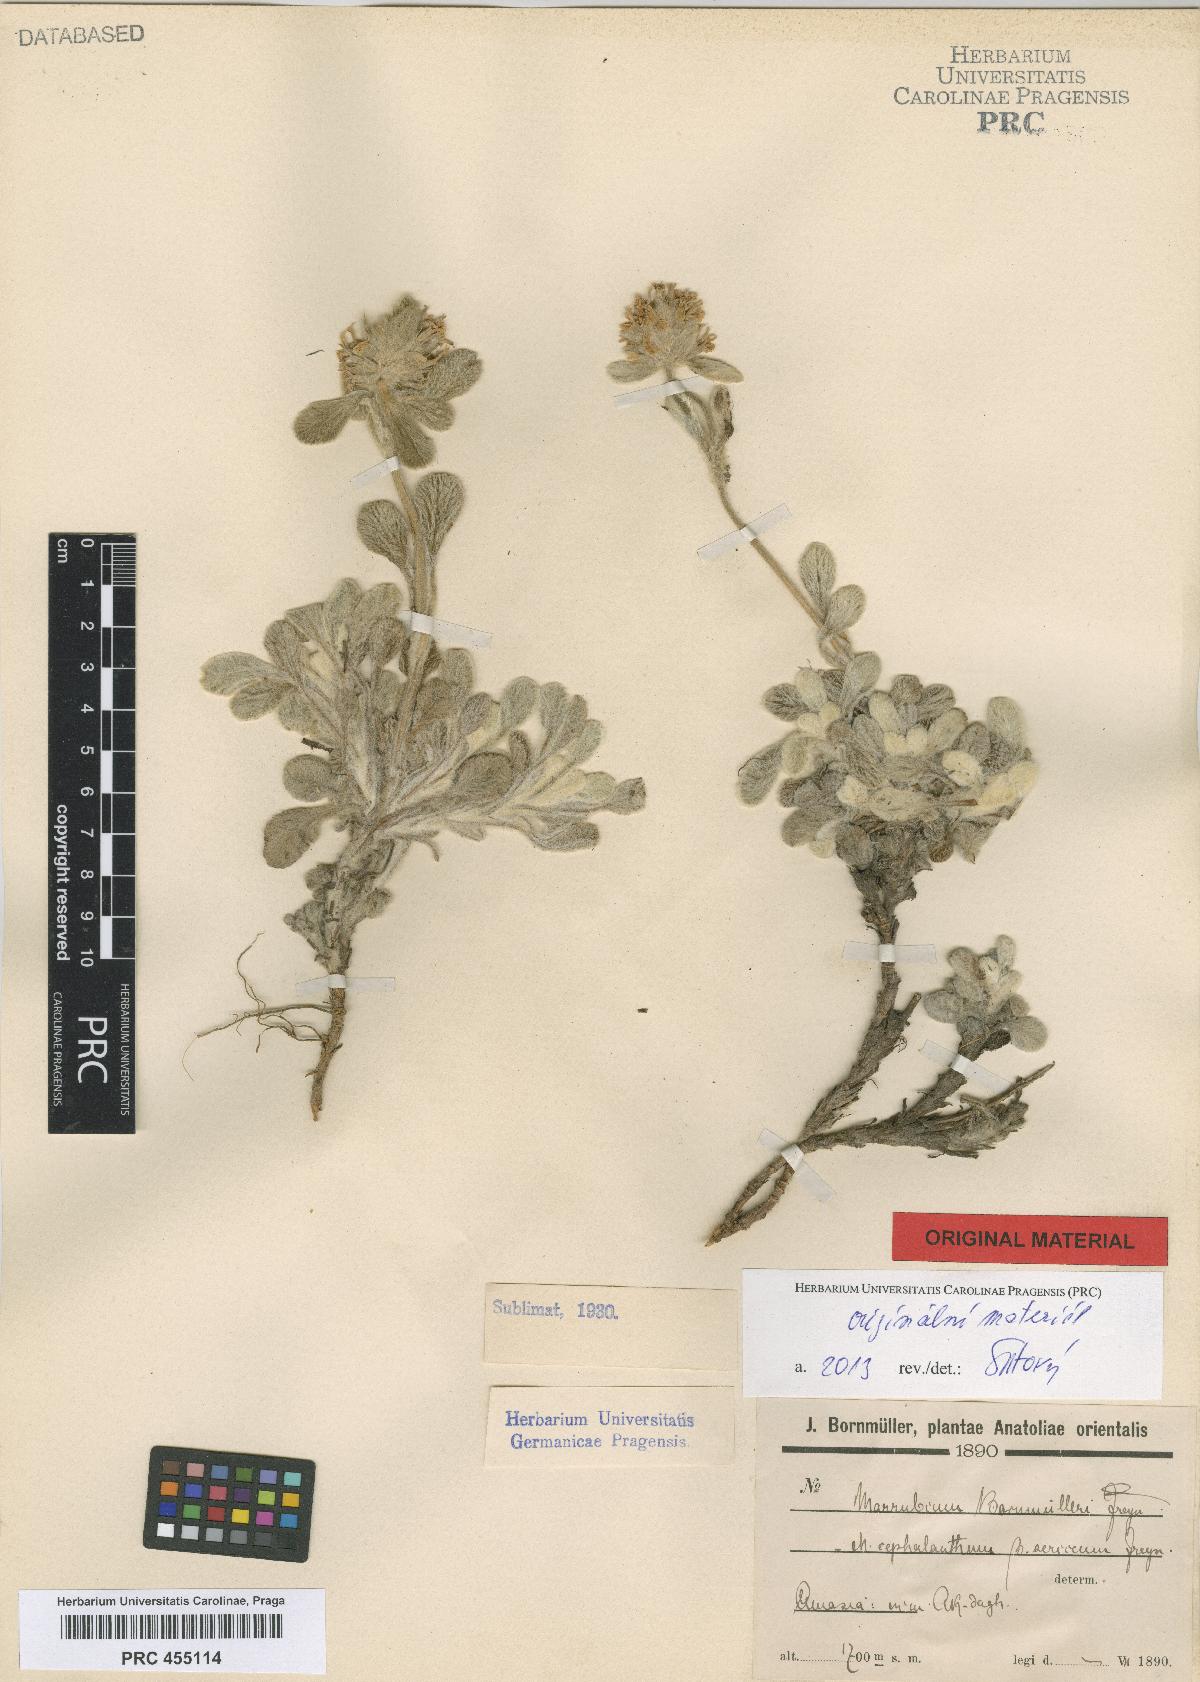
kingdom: Plantae
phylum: Tracheophyta
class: Magnoliopsida
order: Lamiales
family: Lamiaceae
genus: Marrubium
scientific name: Marrubium cephalanthum
